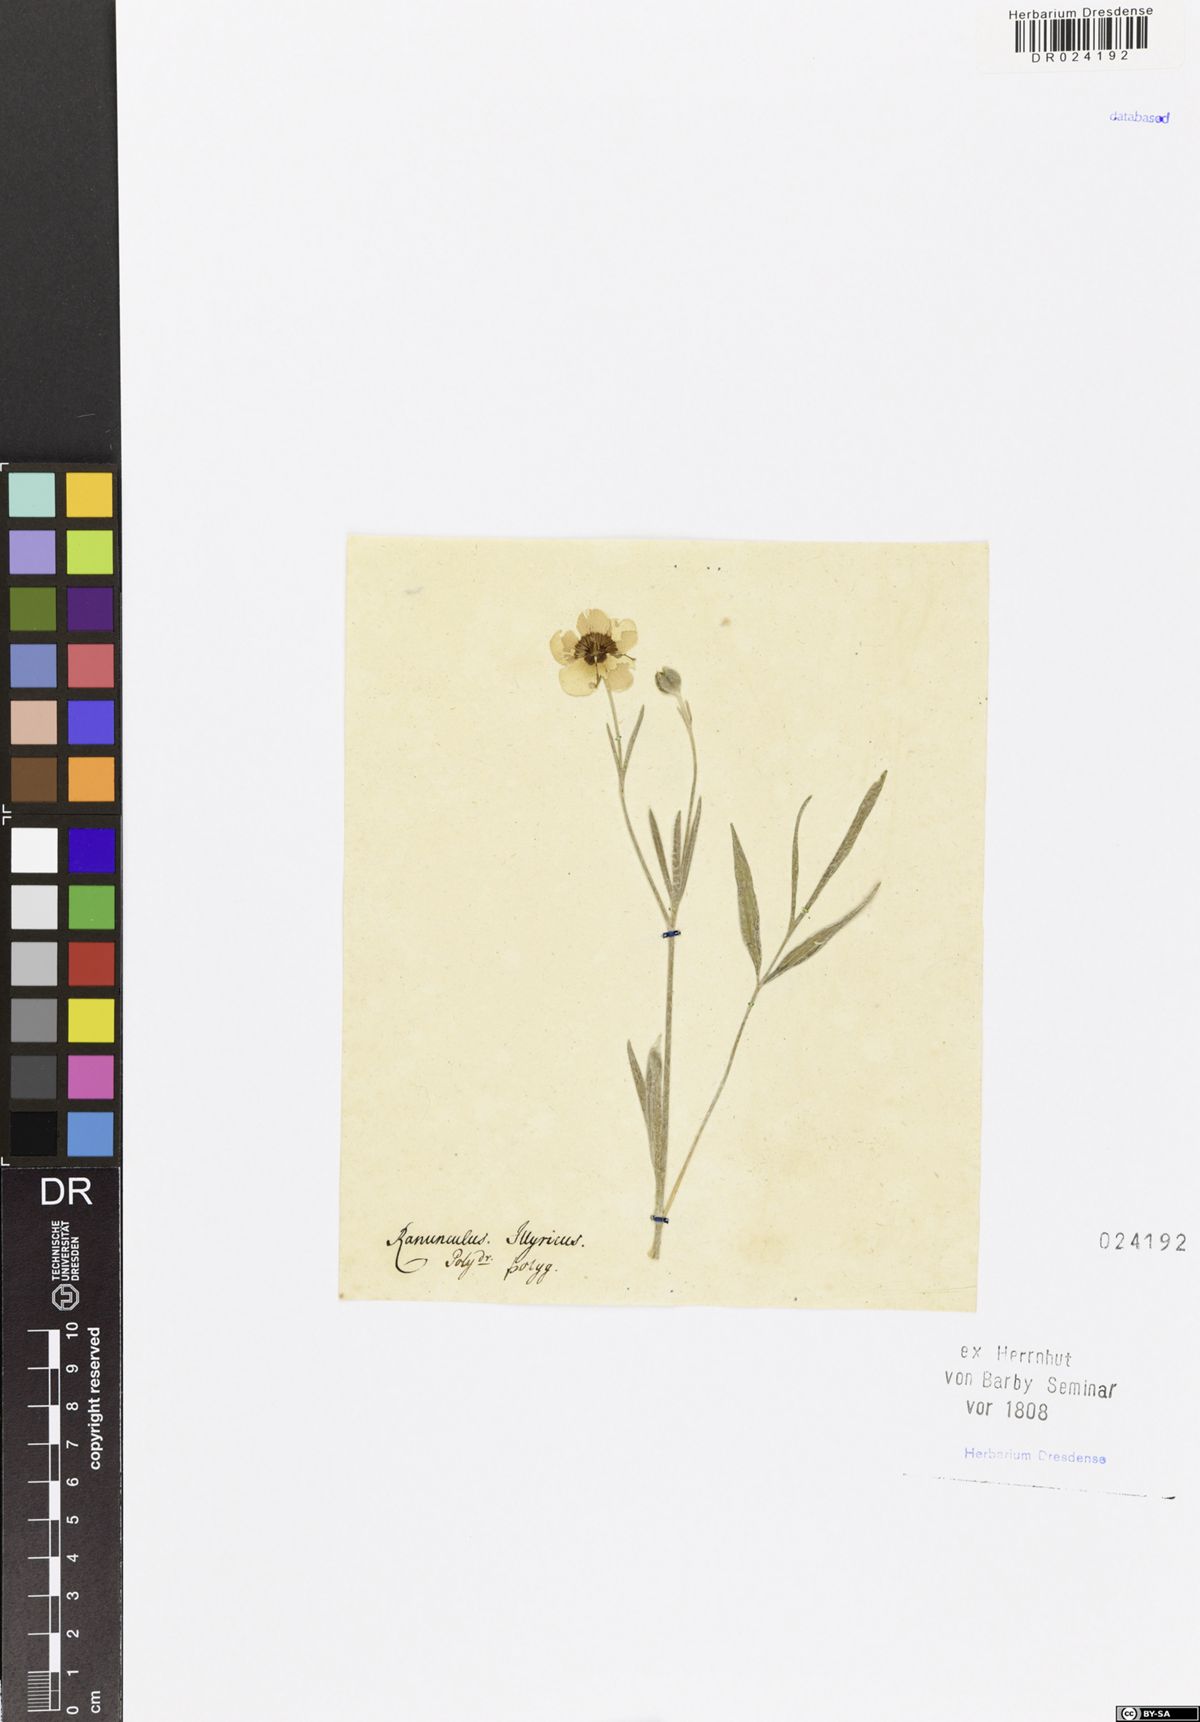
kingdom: Plantae
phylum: Tracheophyta
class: Magnoliopsida
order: Ranunculales
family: Ranunculaceae
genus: Ranunculus
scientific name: Ranunculus illyricus
